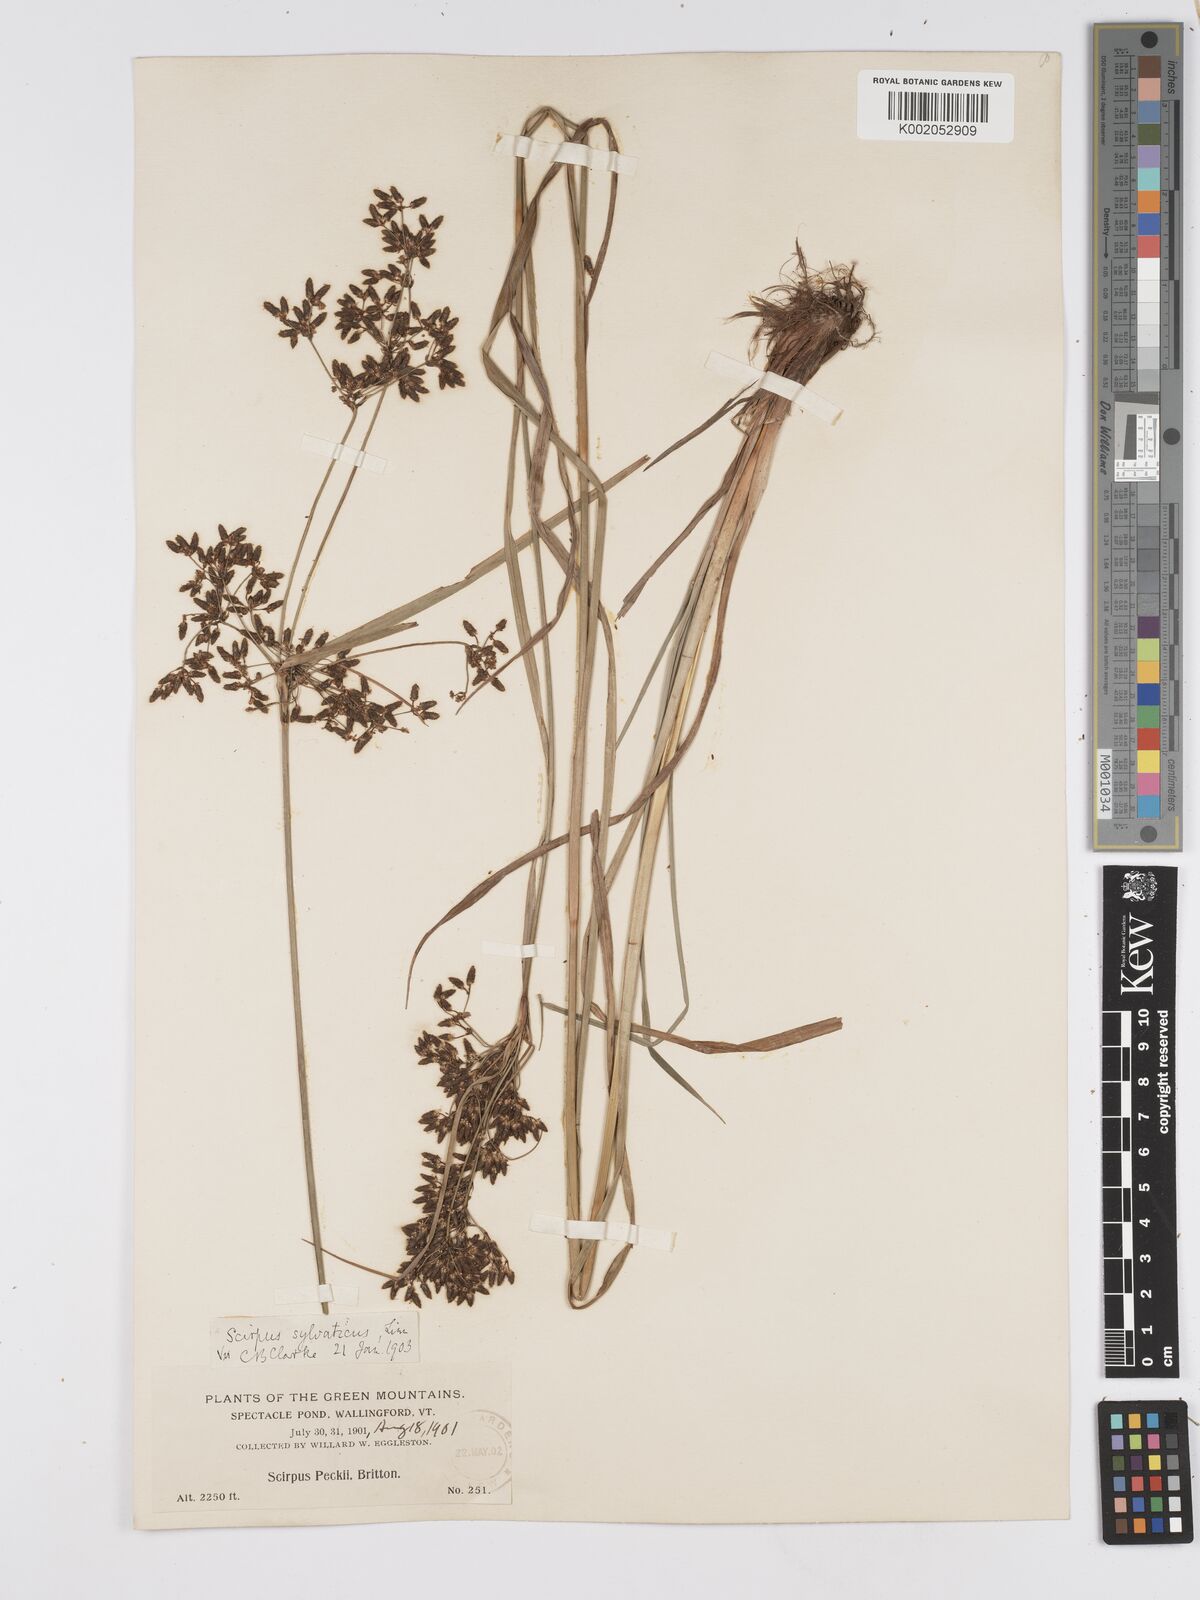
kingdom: Plantae
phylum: Tracheophyta
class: Liliopsida
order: Poales
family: Cyperaceae
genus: Scirpus
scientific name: Scirpus sylvaticus
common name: Wood club-rush
